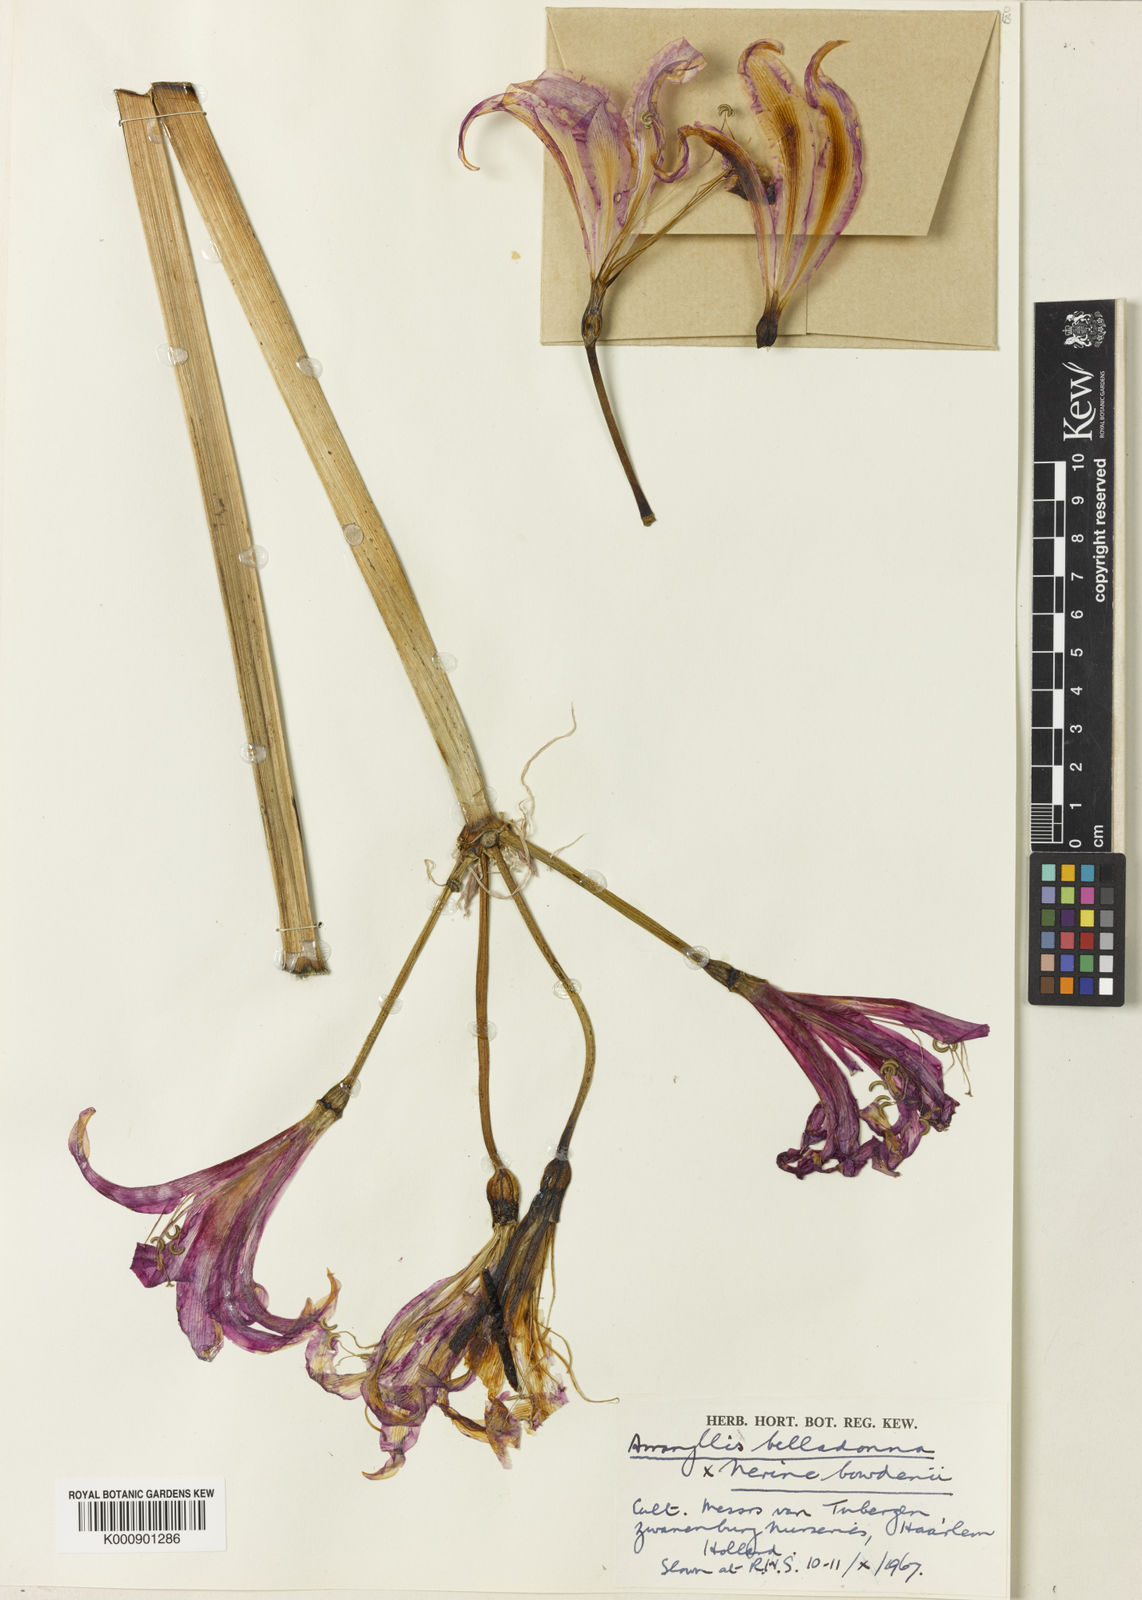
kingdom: Plantae
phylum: Tracheophyta
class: Liliopsida
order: Asparagales
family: Amaryllidaceae
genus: Amarine
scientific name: Amarine tubergenii
